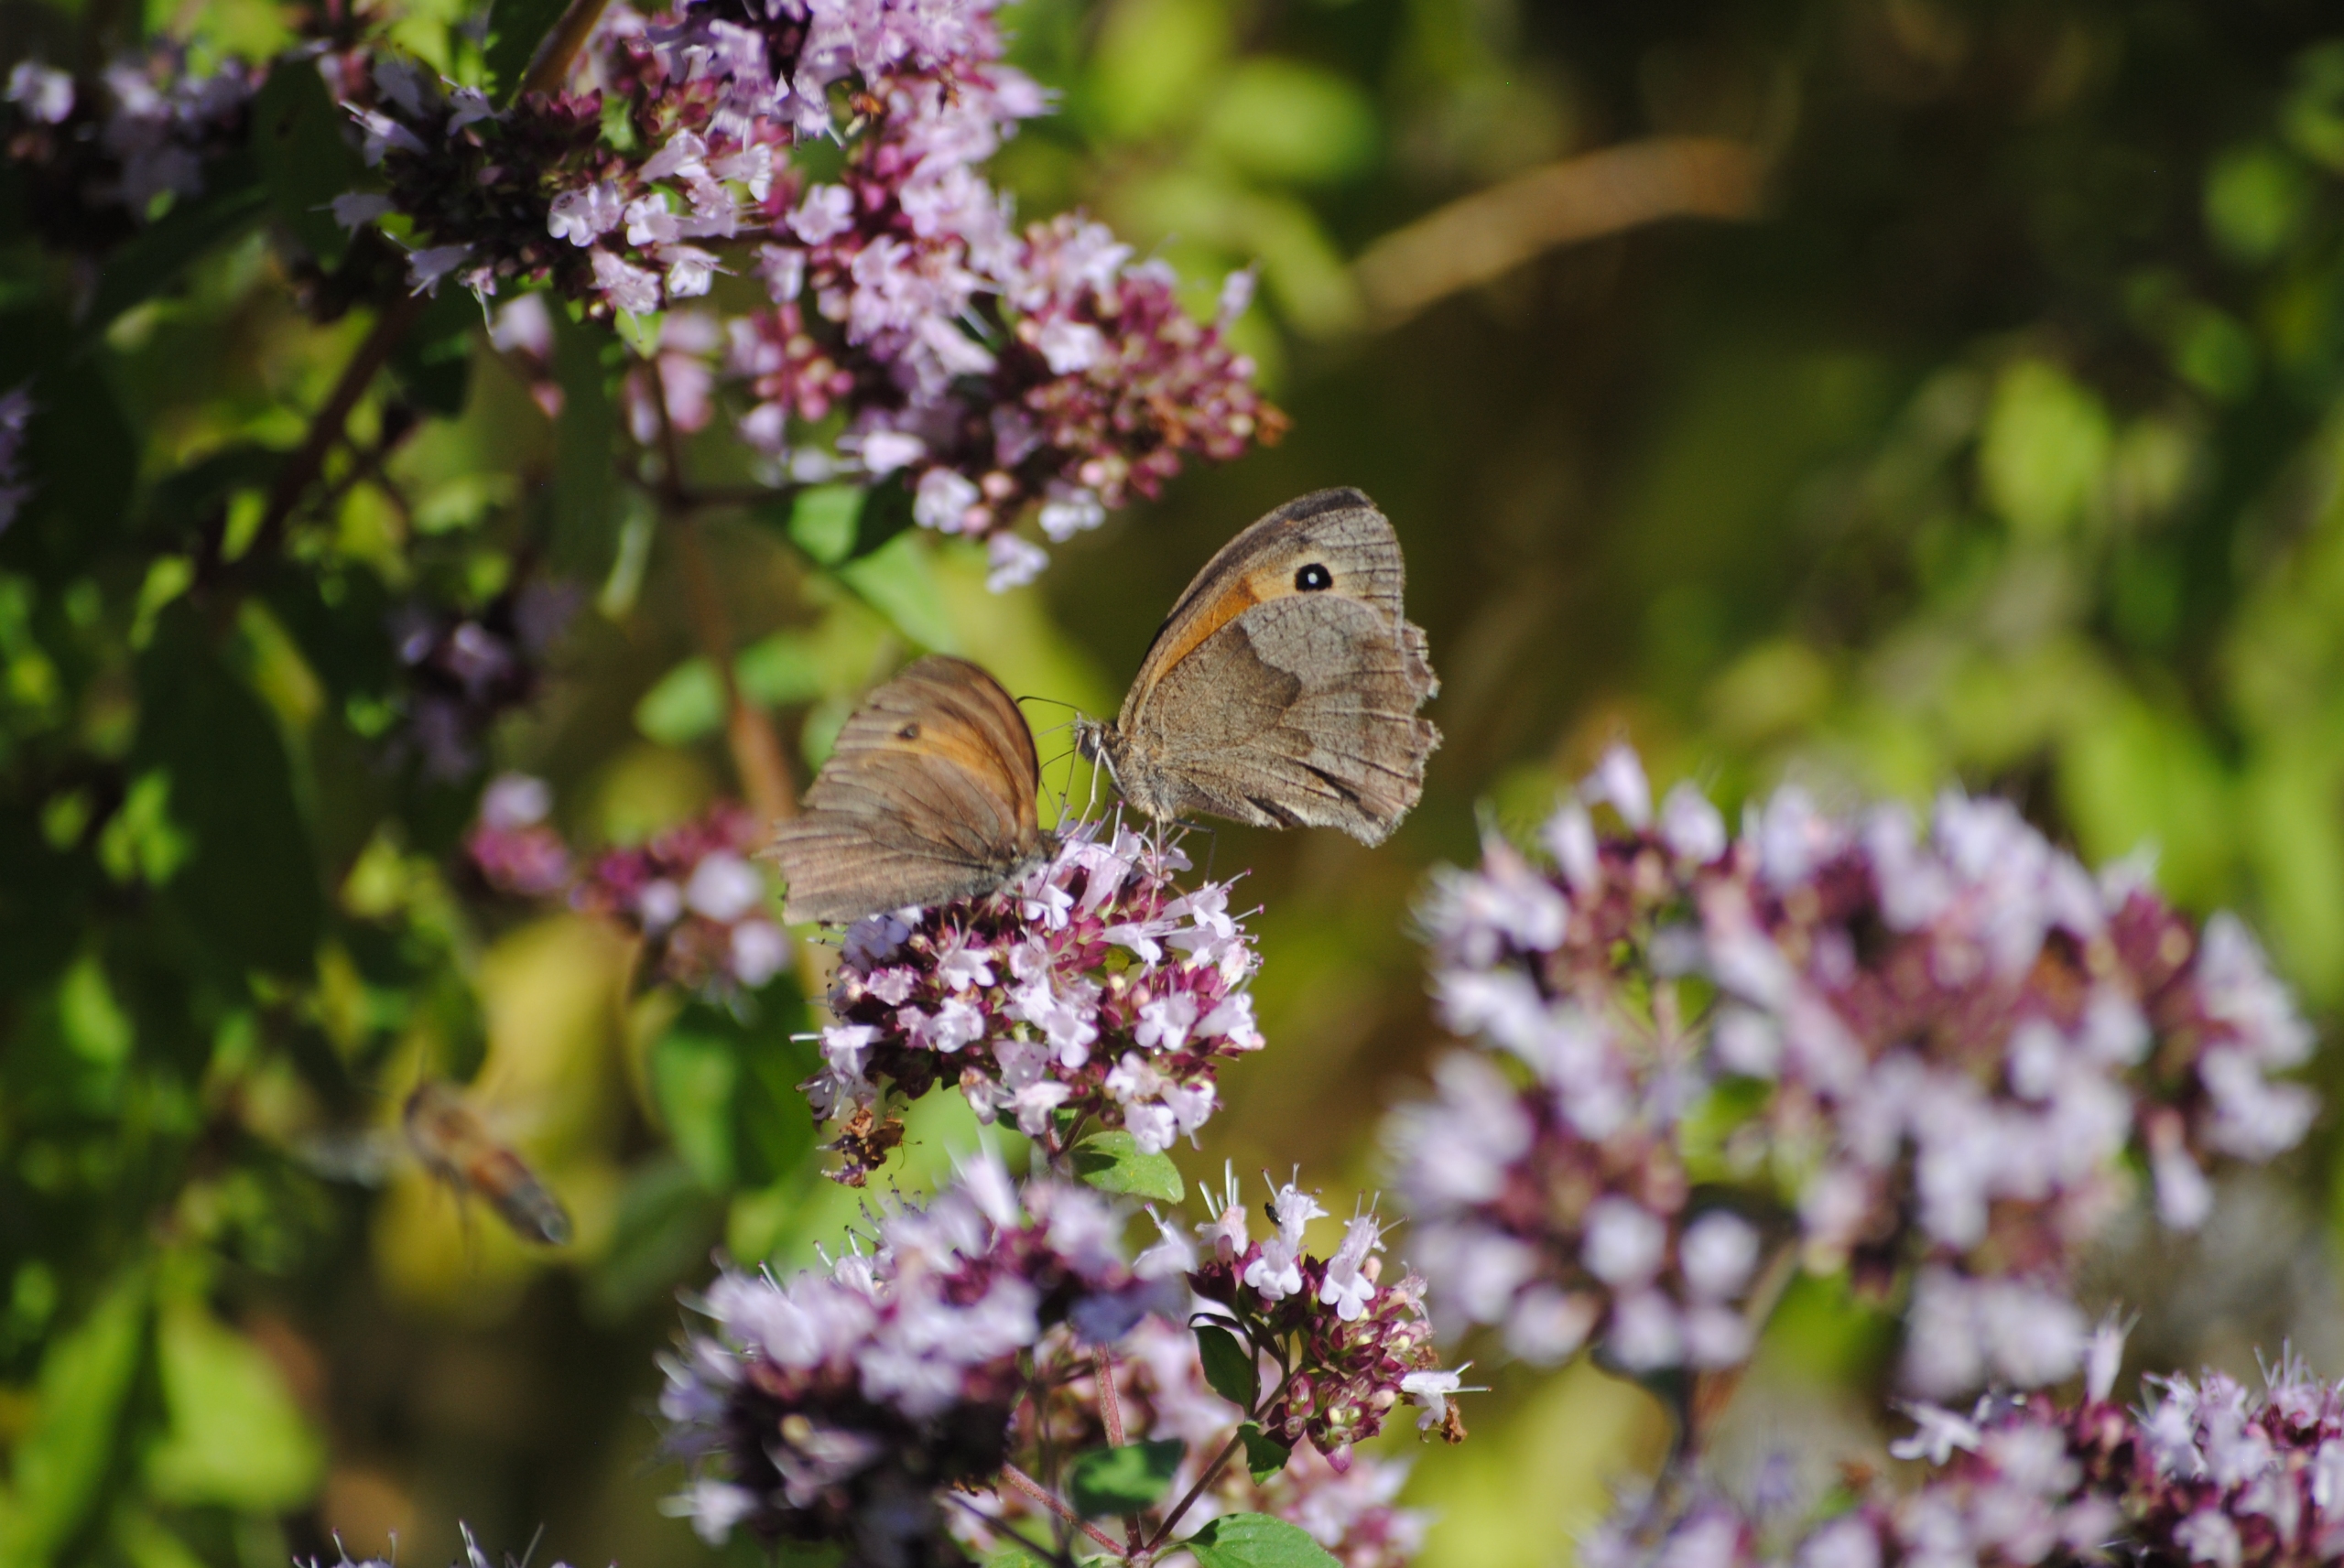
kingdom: Animalia
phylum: Arthropoda
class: Insecta
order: Lepidoptera
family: Nymphalidae
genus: Maniola
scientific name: Maniola jurtina
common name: Græsrandøje
